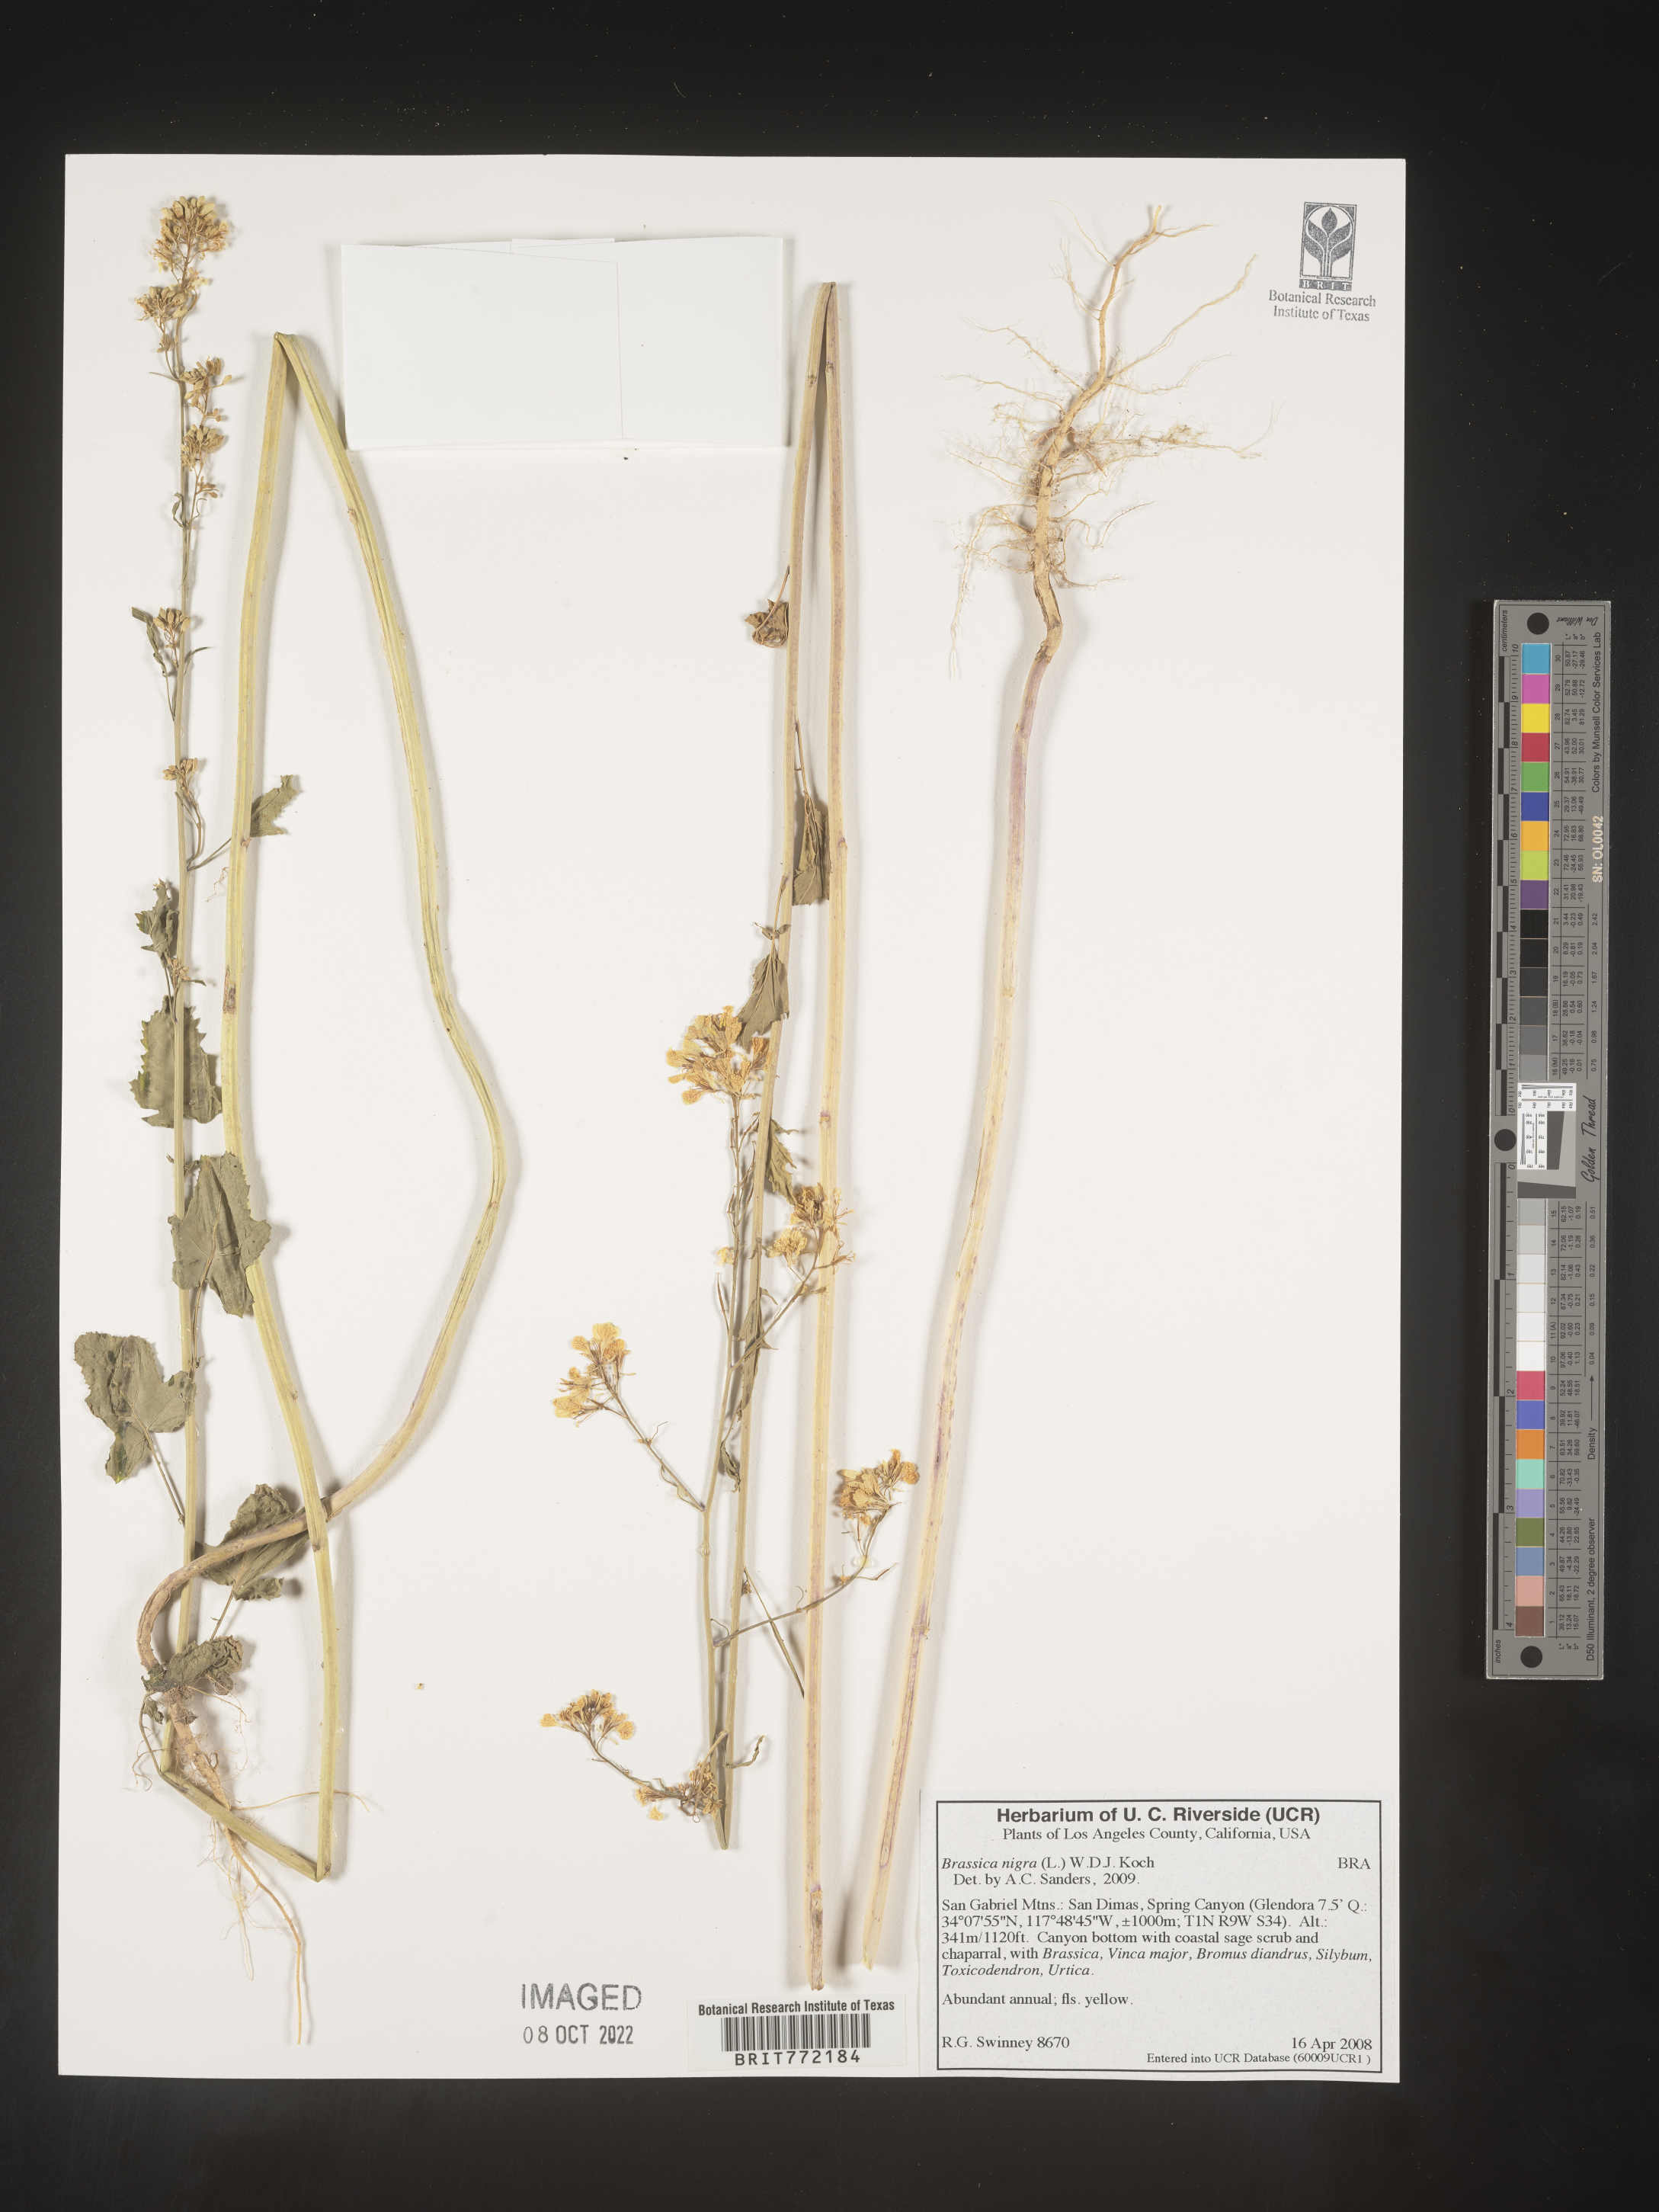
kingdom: Plantae
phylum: Tracheophyta
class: Magnoliopsida
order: Brassicales
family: Brassicaceae
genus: Brassica
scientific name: Brassica nigra
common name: Black mustard
